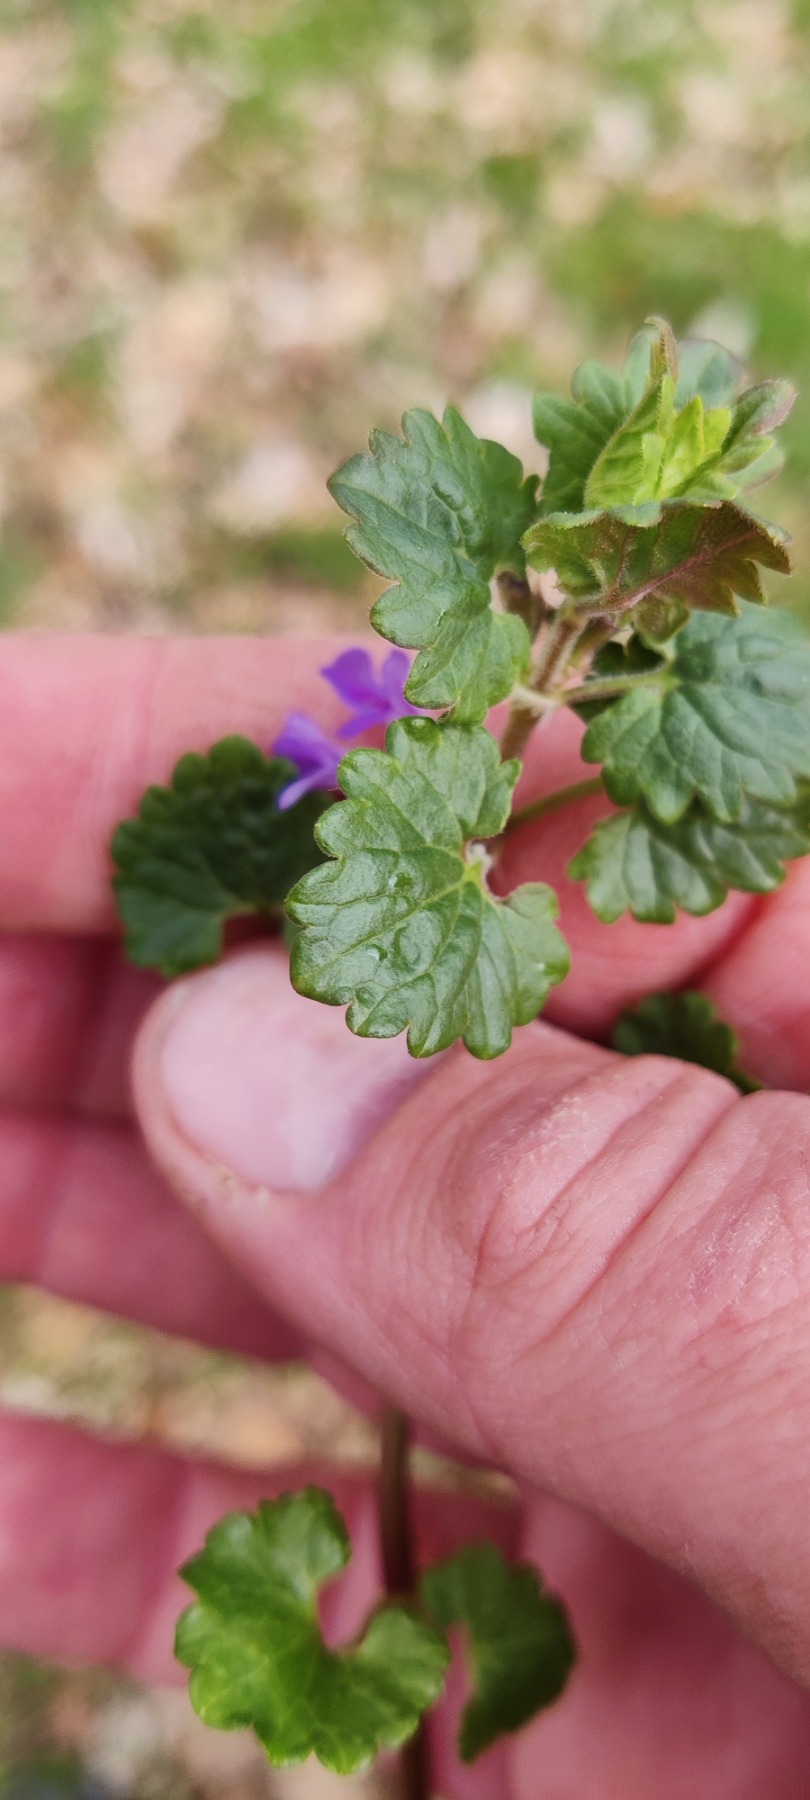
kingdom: Plantae
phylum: Tracheophyta
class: Magnoliopsida
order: Lamiales
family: Lamiaceae
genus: Glechoma
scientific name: Glechoma hederacea
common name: Korsknap
